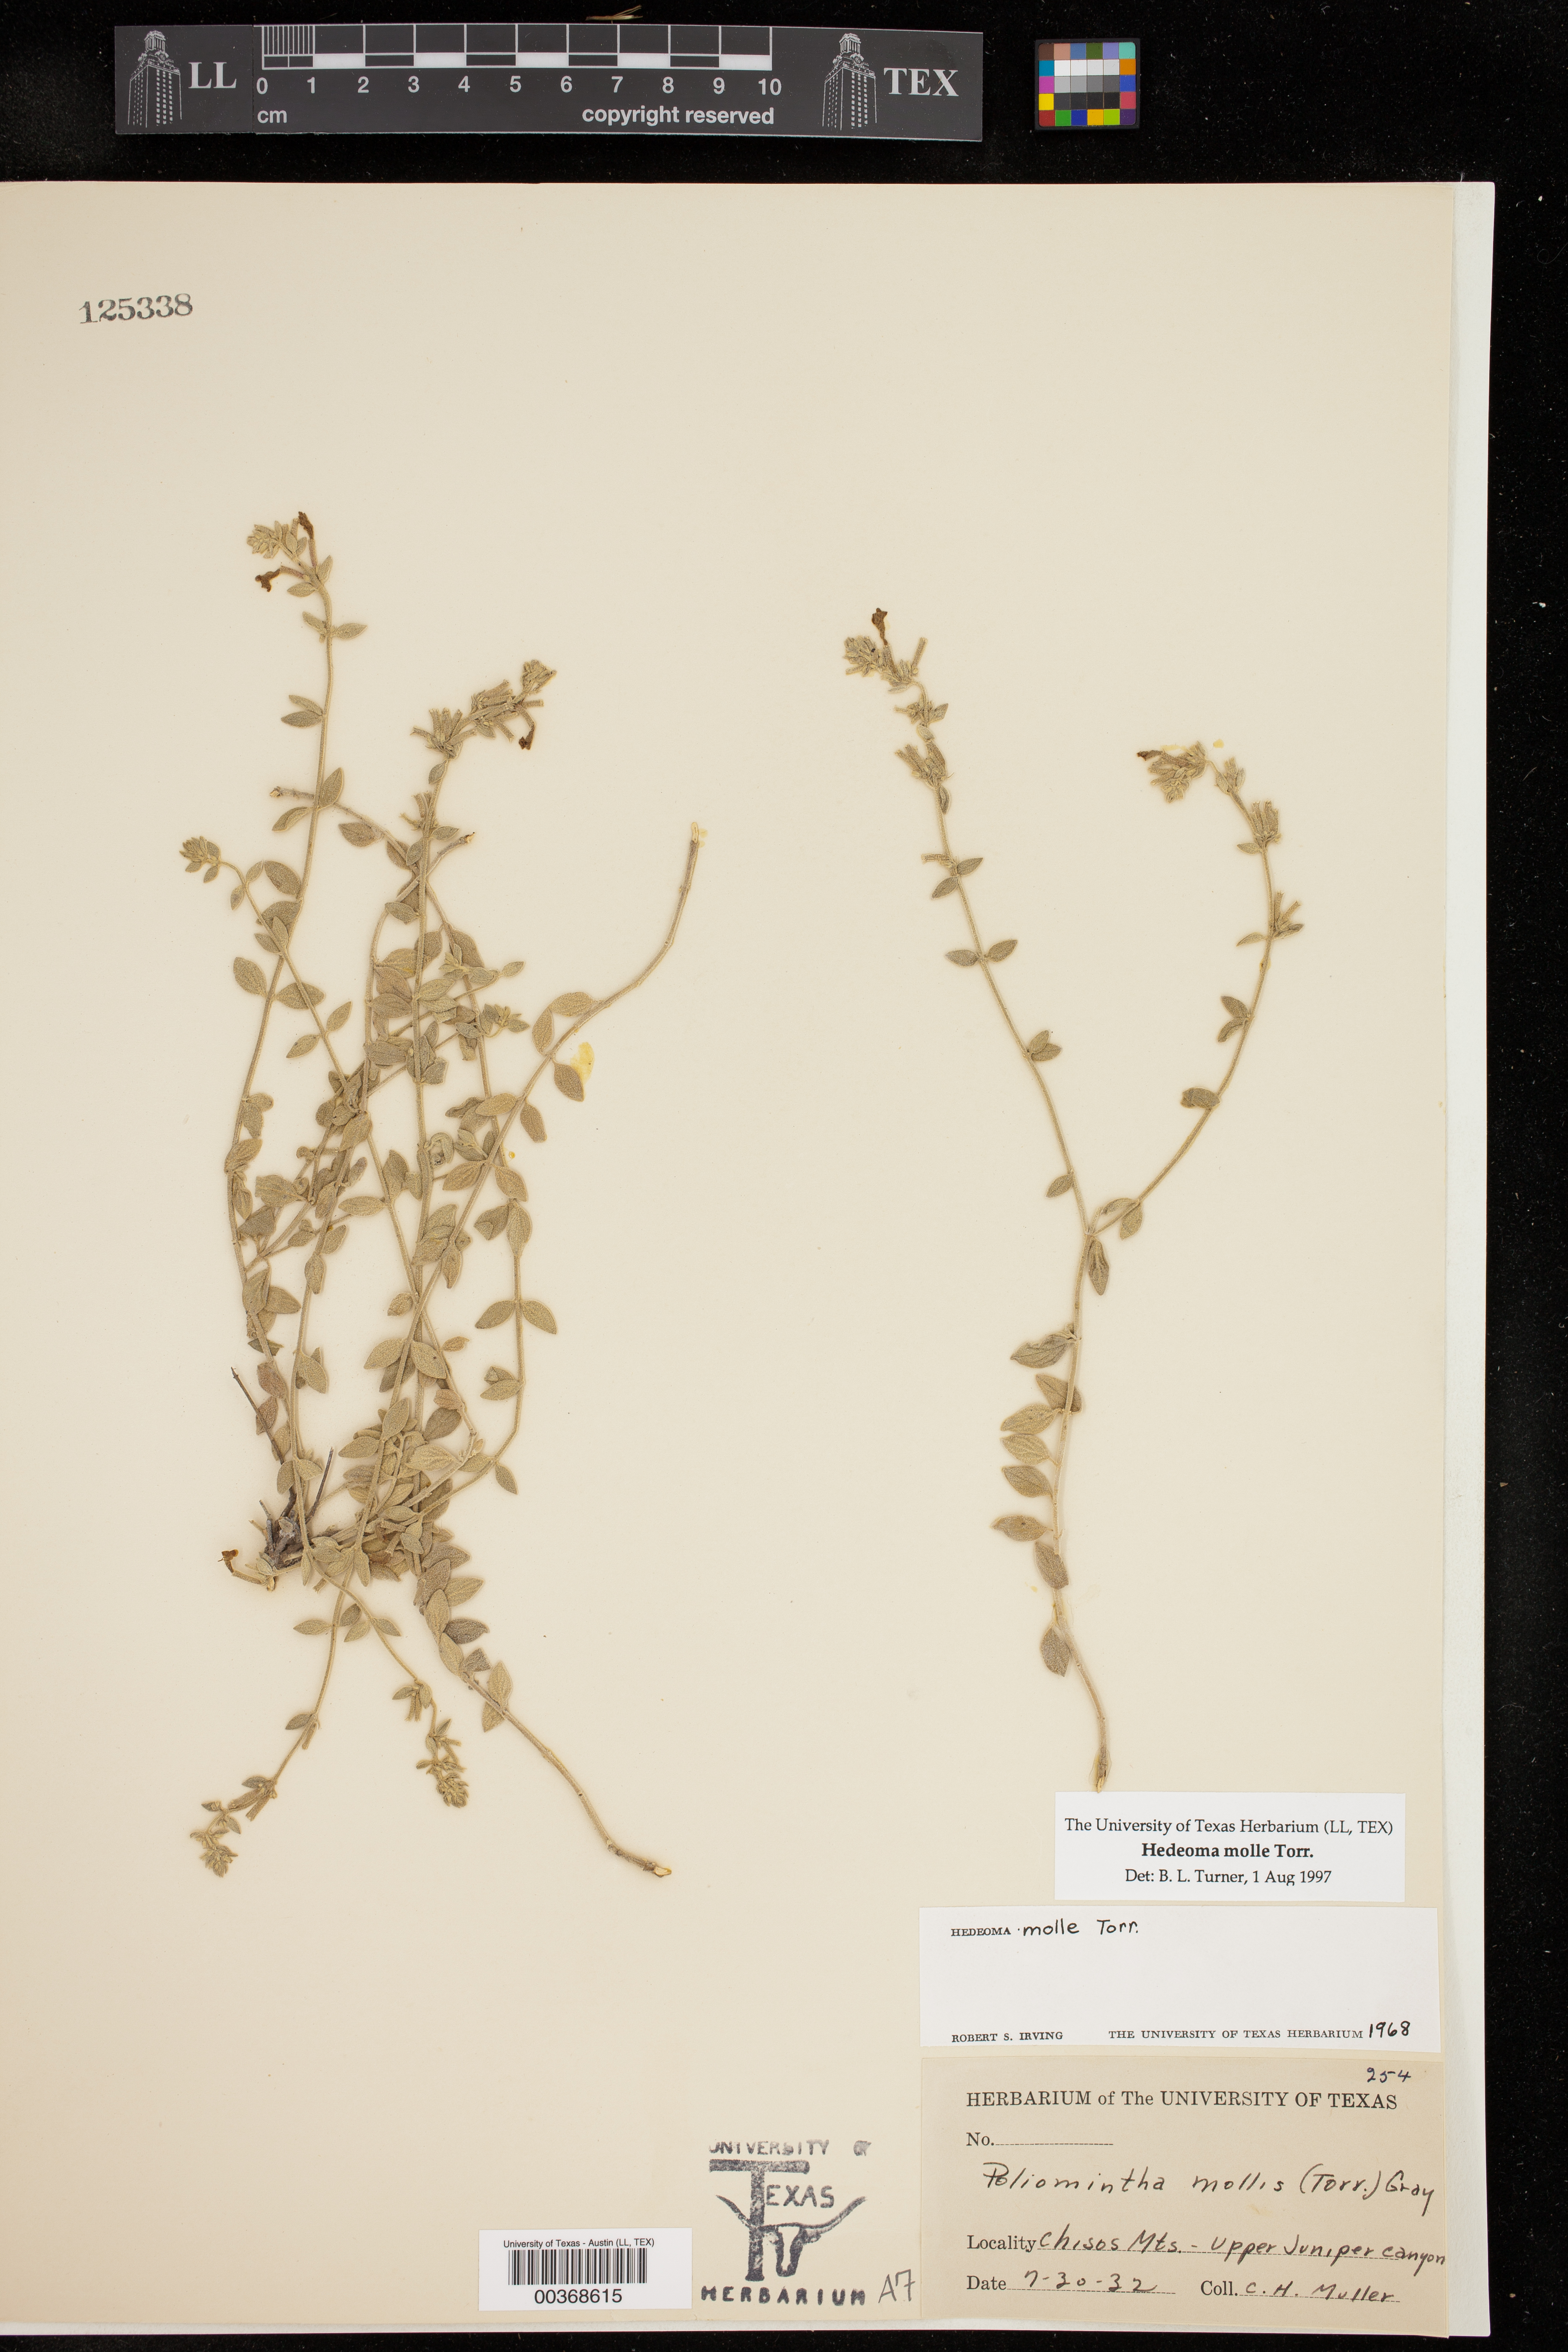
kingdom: Plantae
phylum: Tracheophyta
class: Magnoliopsida
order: Lamiales
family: Lamiaceae
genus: Hedeoma
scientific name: Hedeoma mollis
